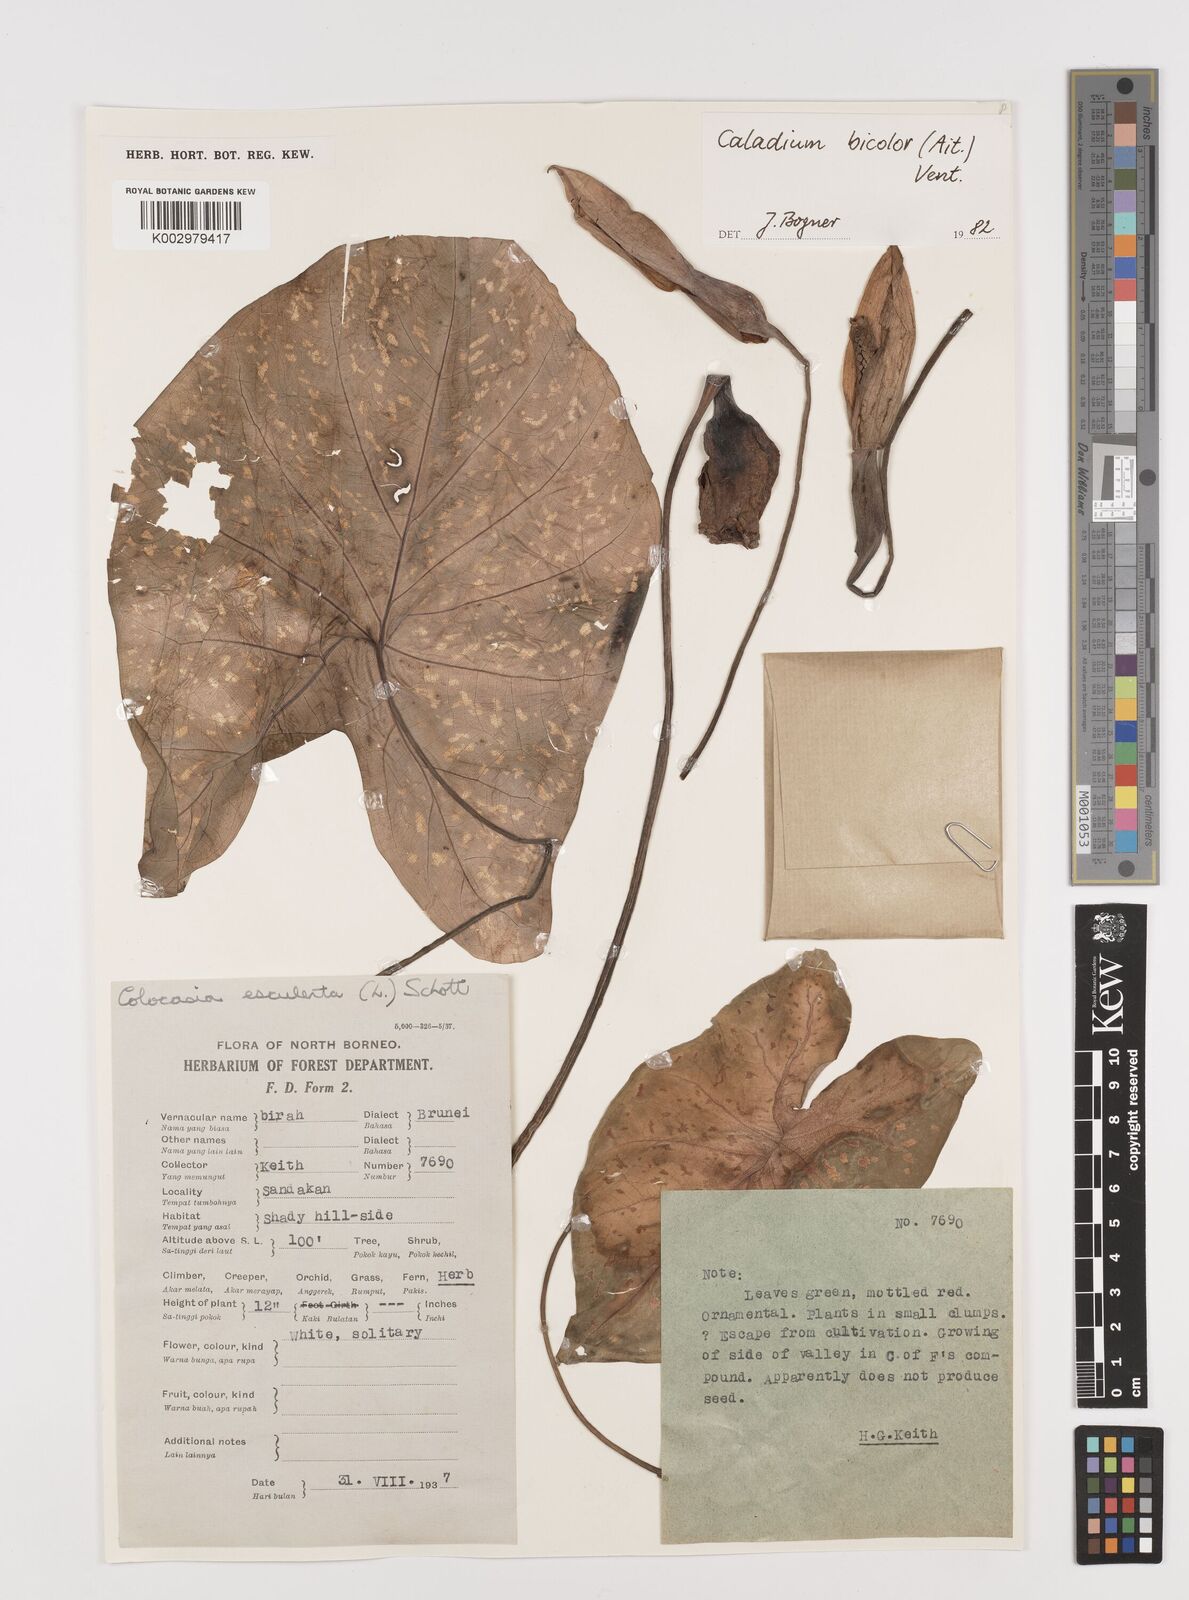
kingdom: Plantae
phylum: Tracheophyta
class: Liliopsida
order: Alismatales
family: Araceae
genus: Caladium
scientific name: Caladium bicolor
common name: Artist's pallet
